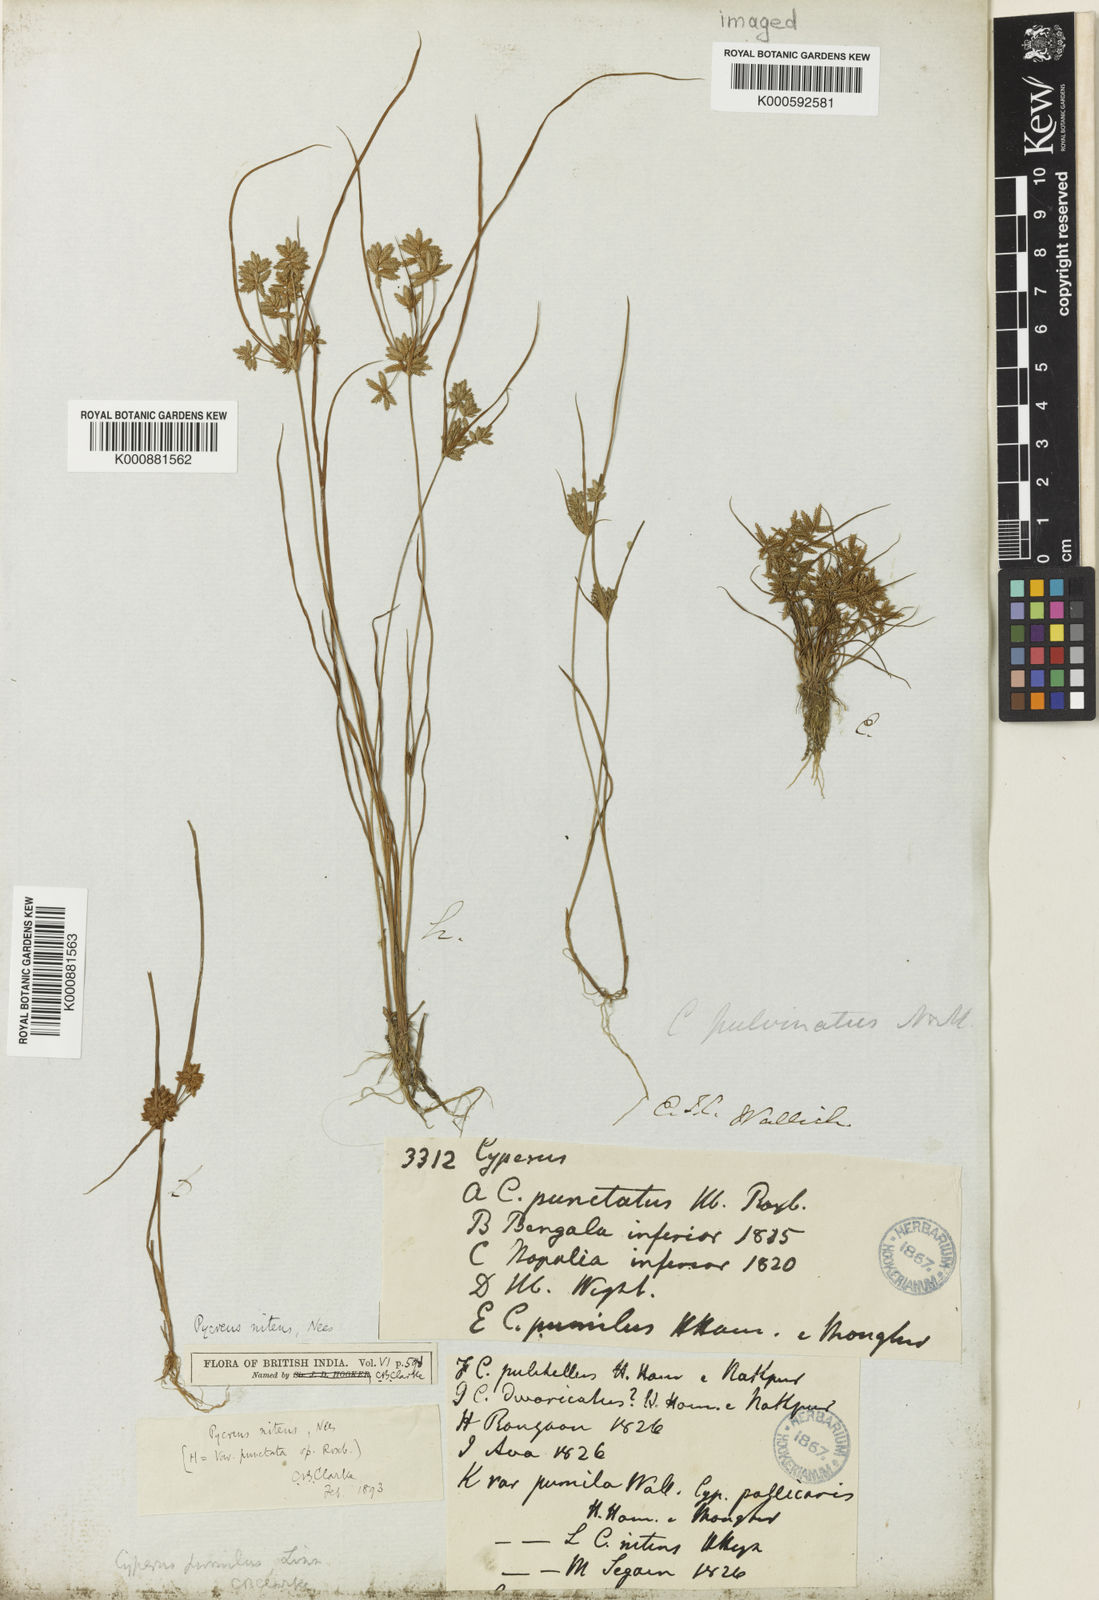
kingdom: Plantae
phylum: Tracheophyta
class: Liliopsida
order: Poales
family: Cyperaceae
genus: Cyperus
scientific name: Cyperus
